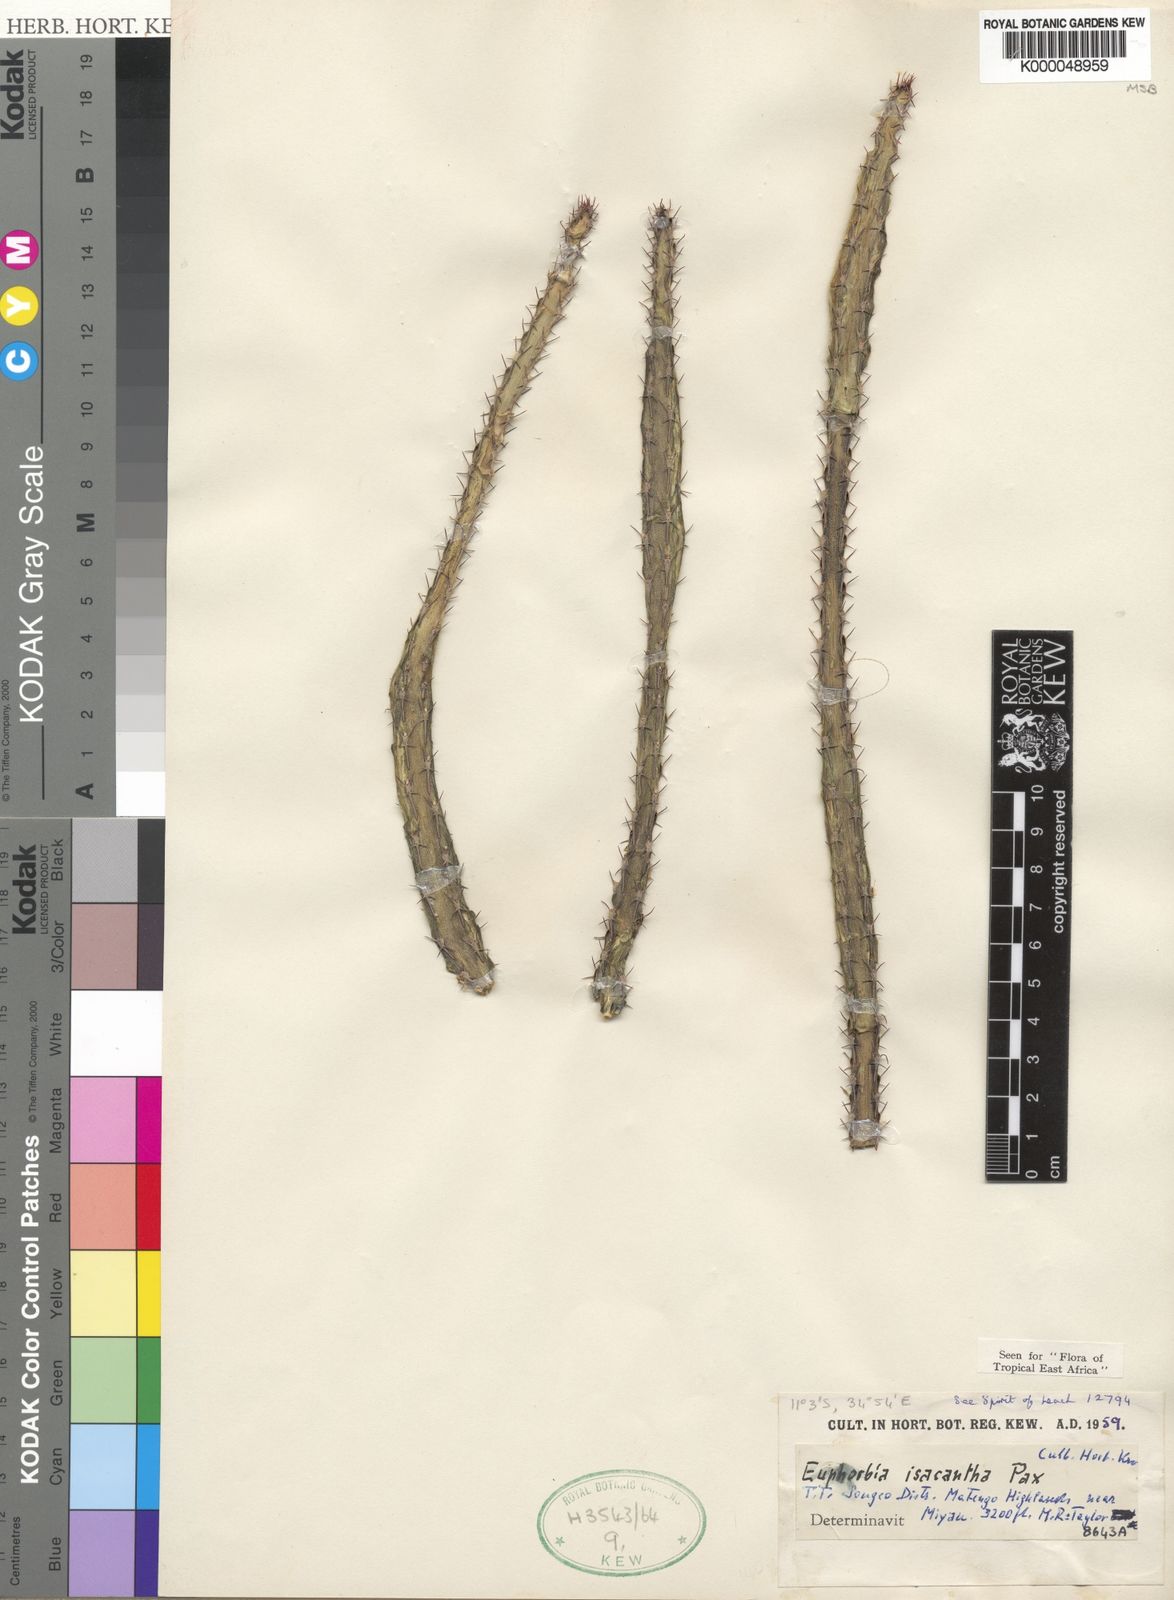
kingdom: Plantae
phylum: Tracheophyta
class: Magnoliopsida
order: Malpighiales
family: Euphorbiaceae
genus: Euphorbia
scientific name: Euphorbia isacantha
